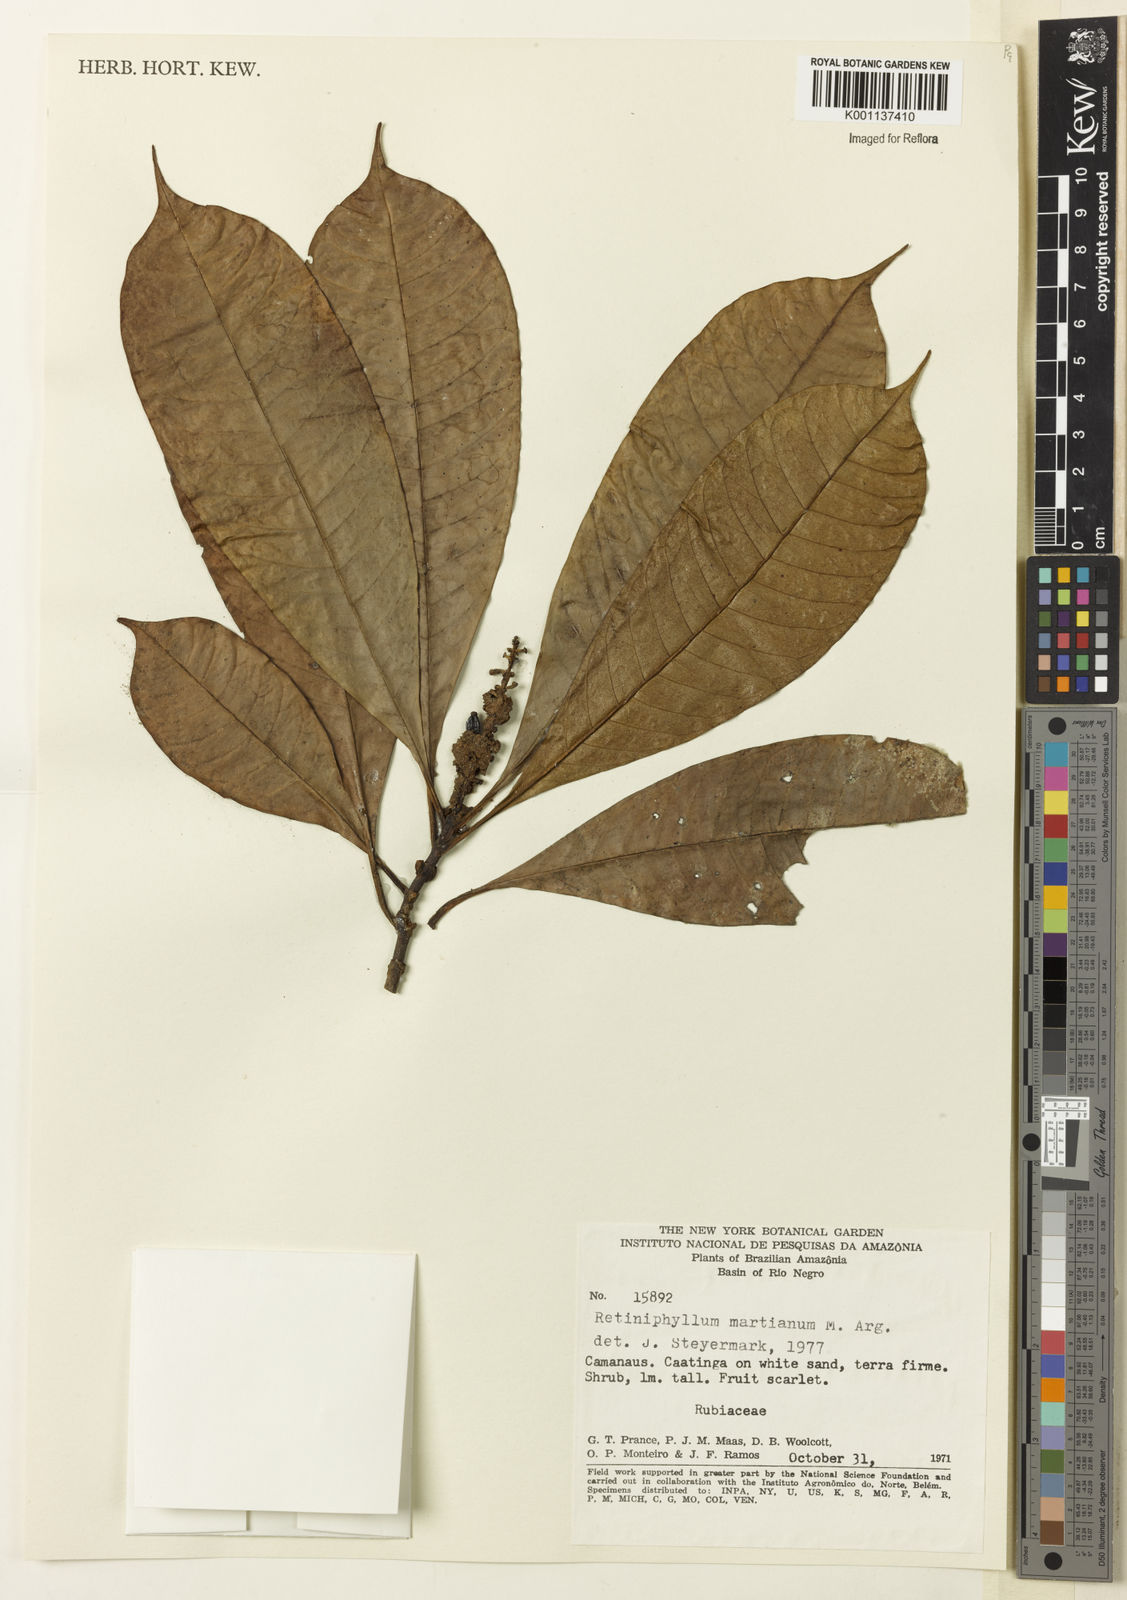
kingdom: Plantae
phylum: Tracheophyta
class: Magnoliopsida
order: Gentianales
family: Rubiaceae
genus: Retiniphyllum
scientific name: Retiniphyllum
